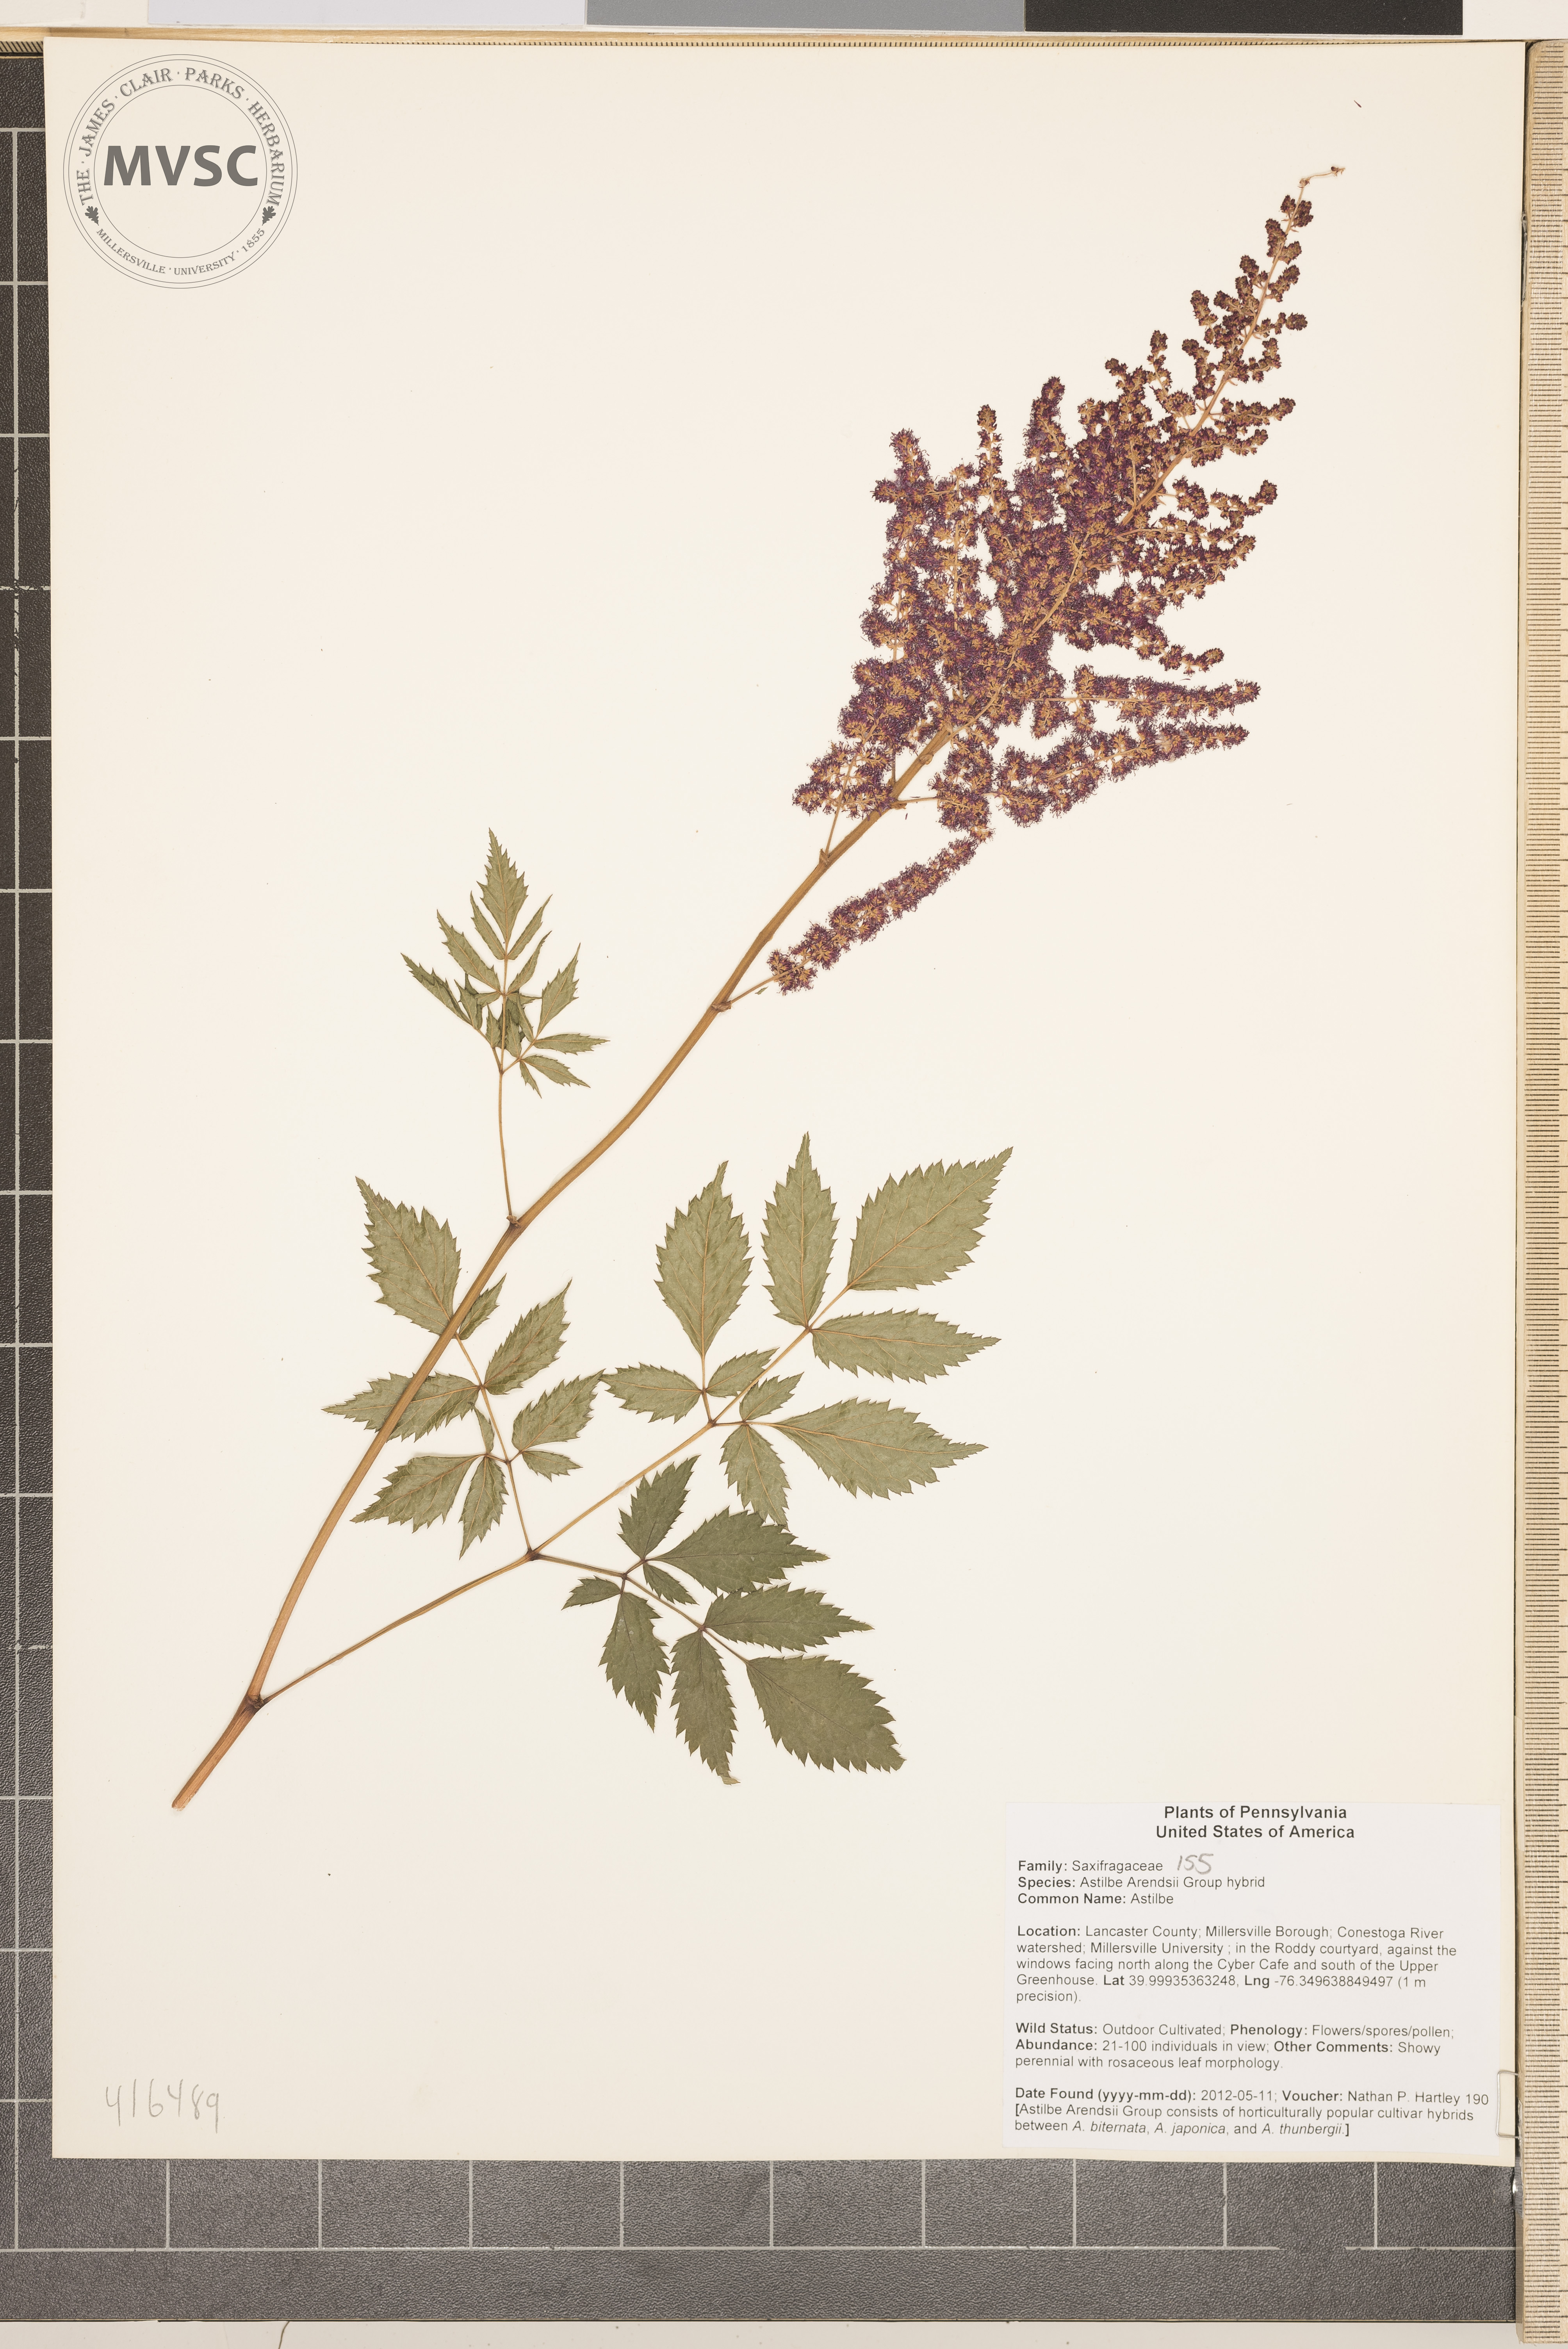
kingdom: Plantae
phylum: Tracheophyta
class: Magnoliopsida
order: Saxifragales
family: Saxifragaceae
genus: Astilbe
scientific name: Astilbe
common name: Astilbe
